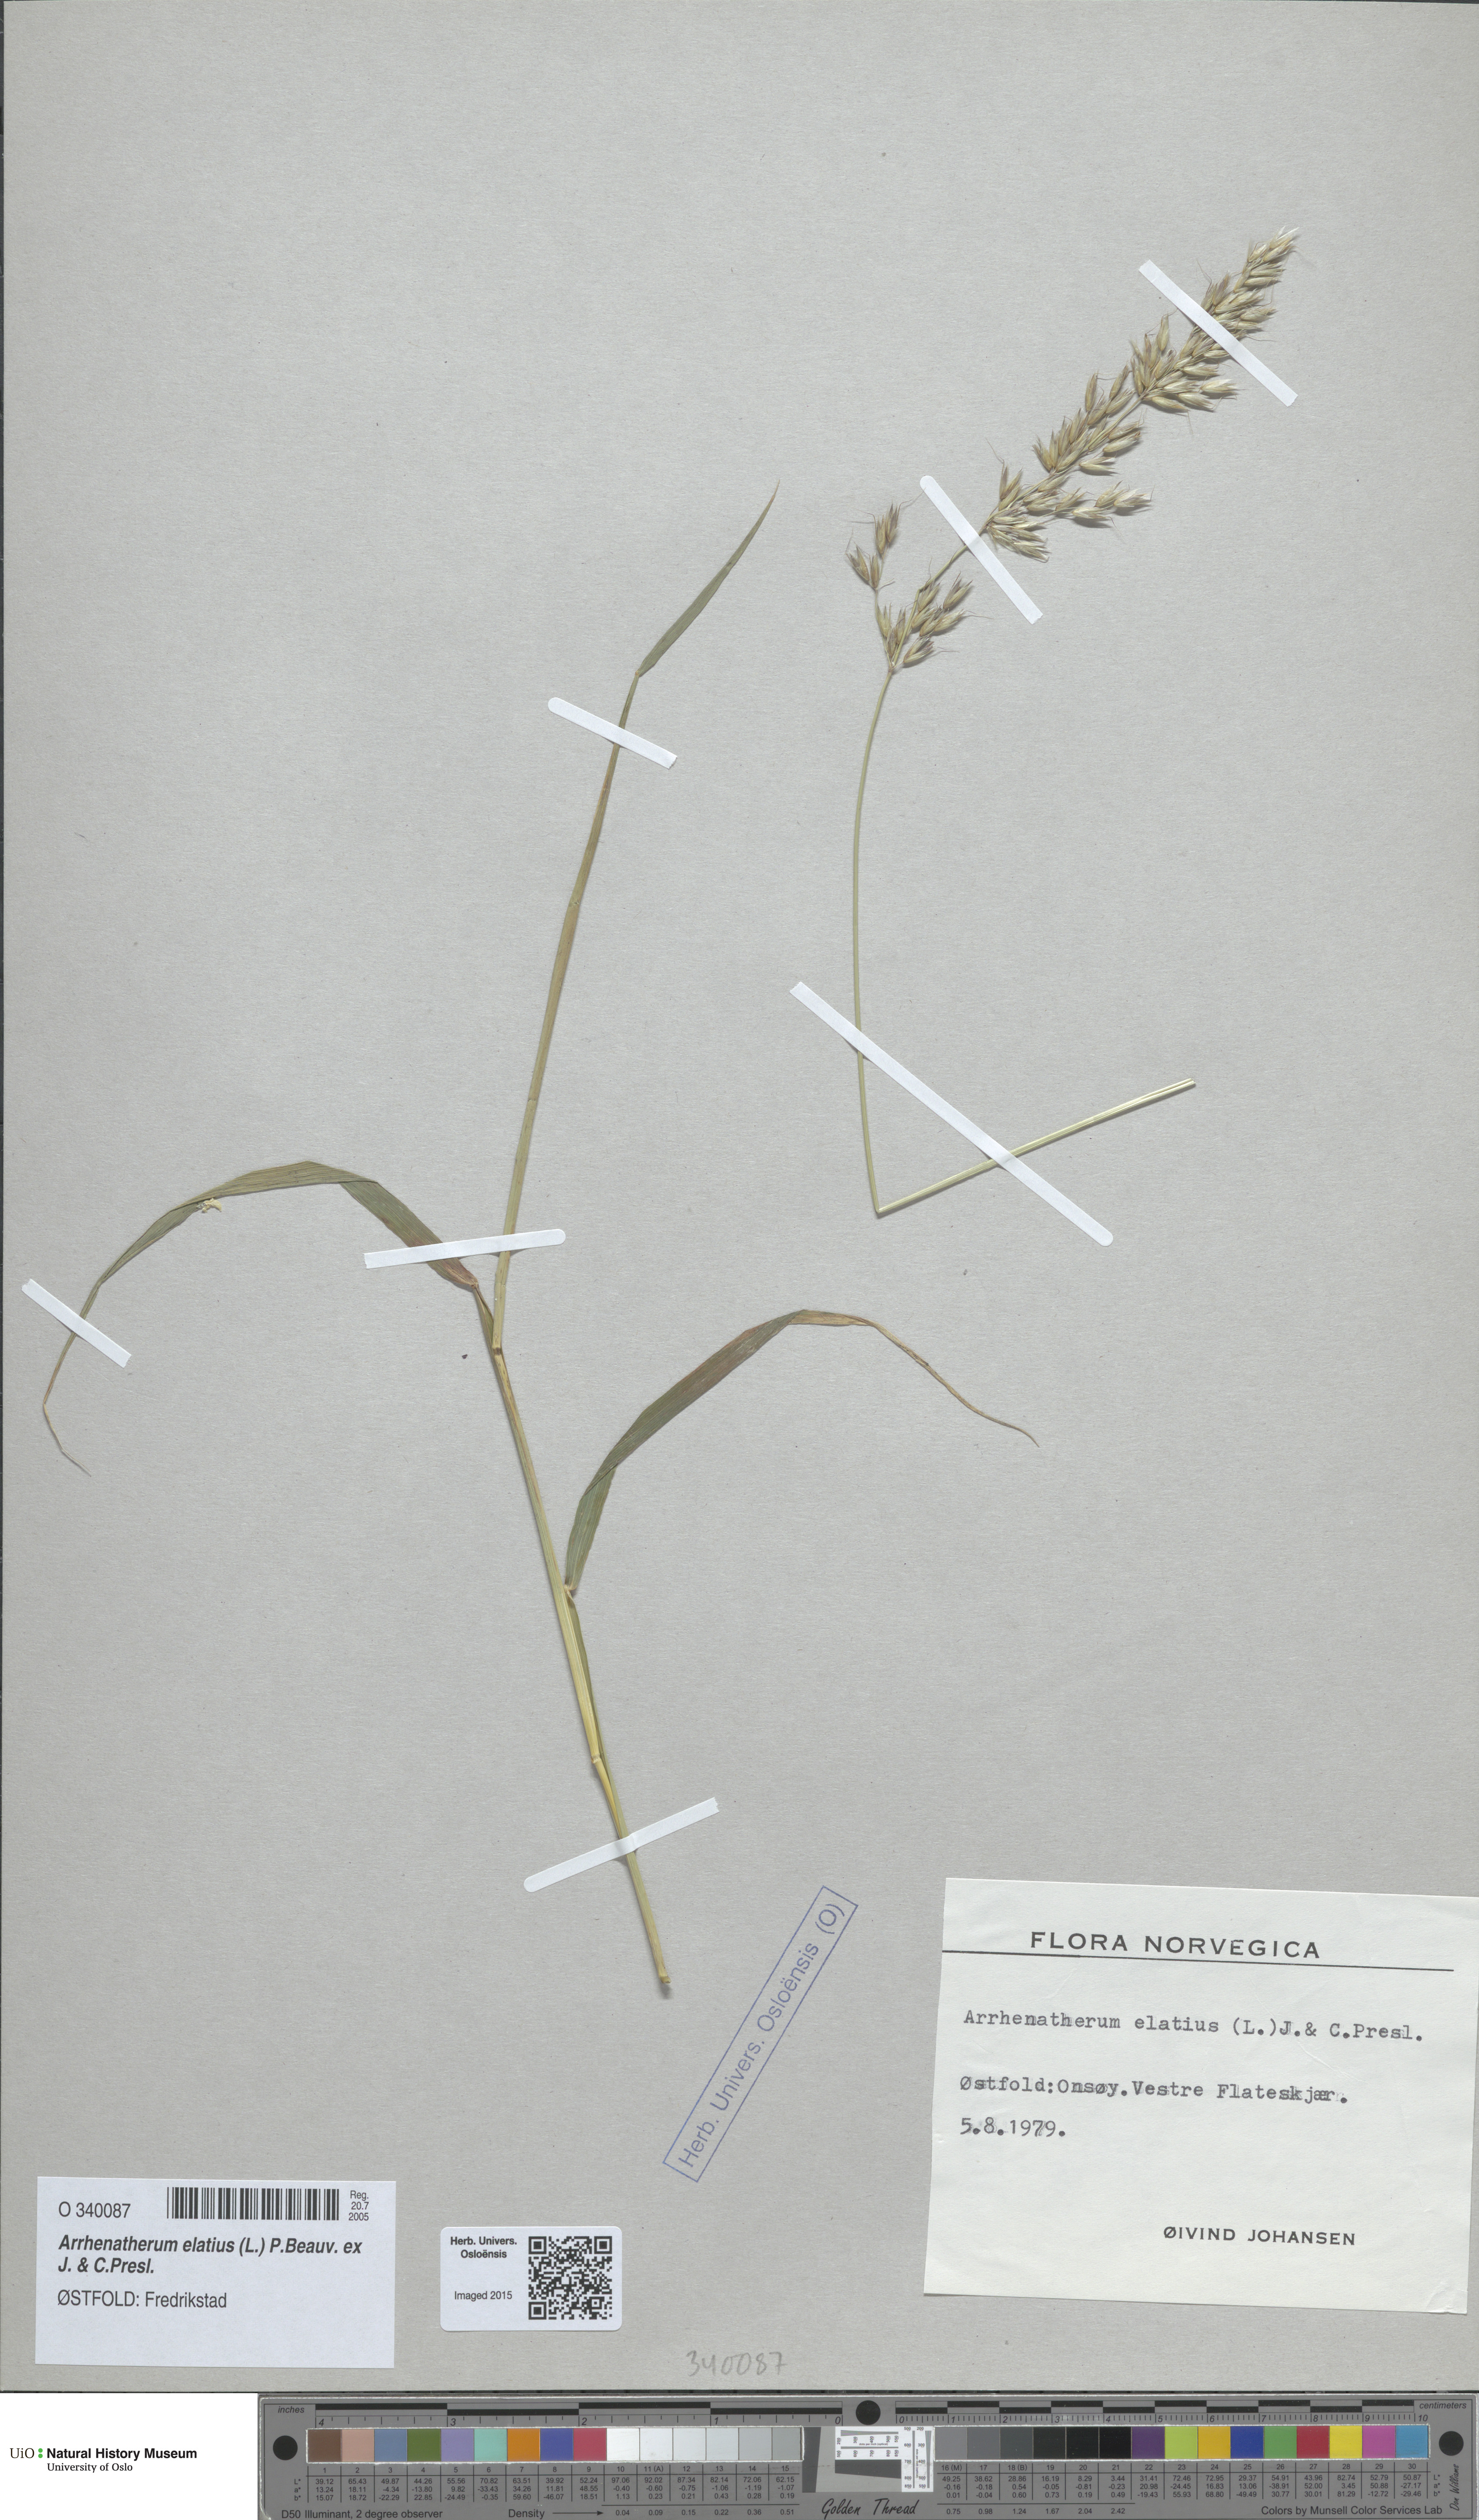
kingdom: Plantae
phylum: Tracheophyta
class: Liliopsida
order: Poales
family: Poaceae
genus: Arrhenatherum
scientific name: Arrhenatherum elatius
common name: Tall oatgrass
